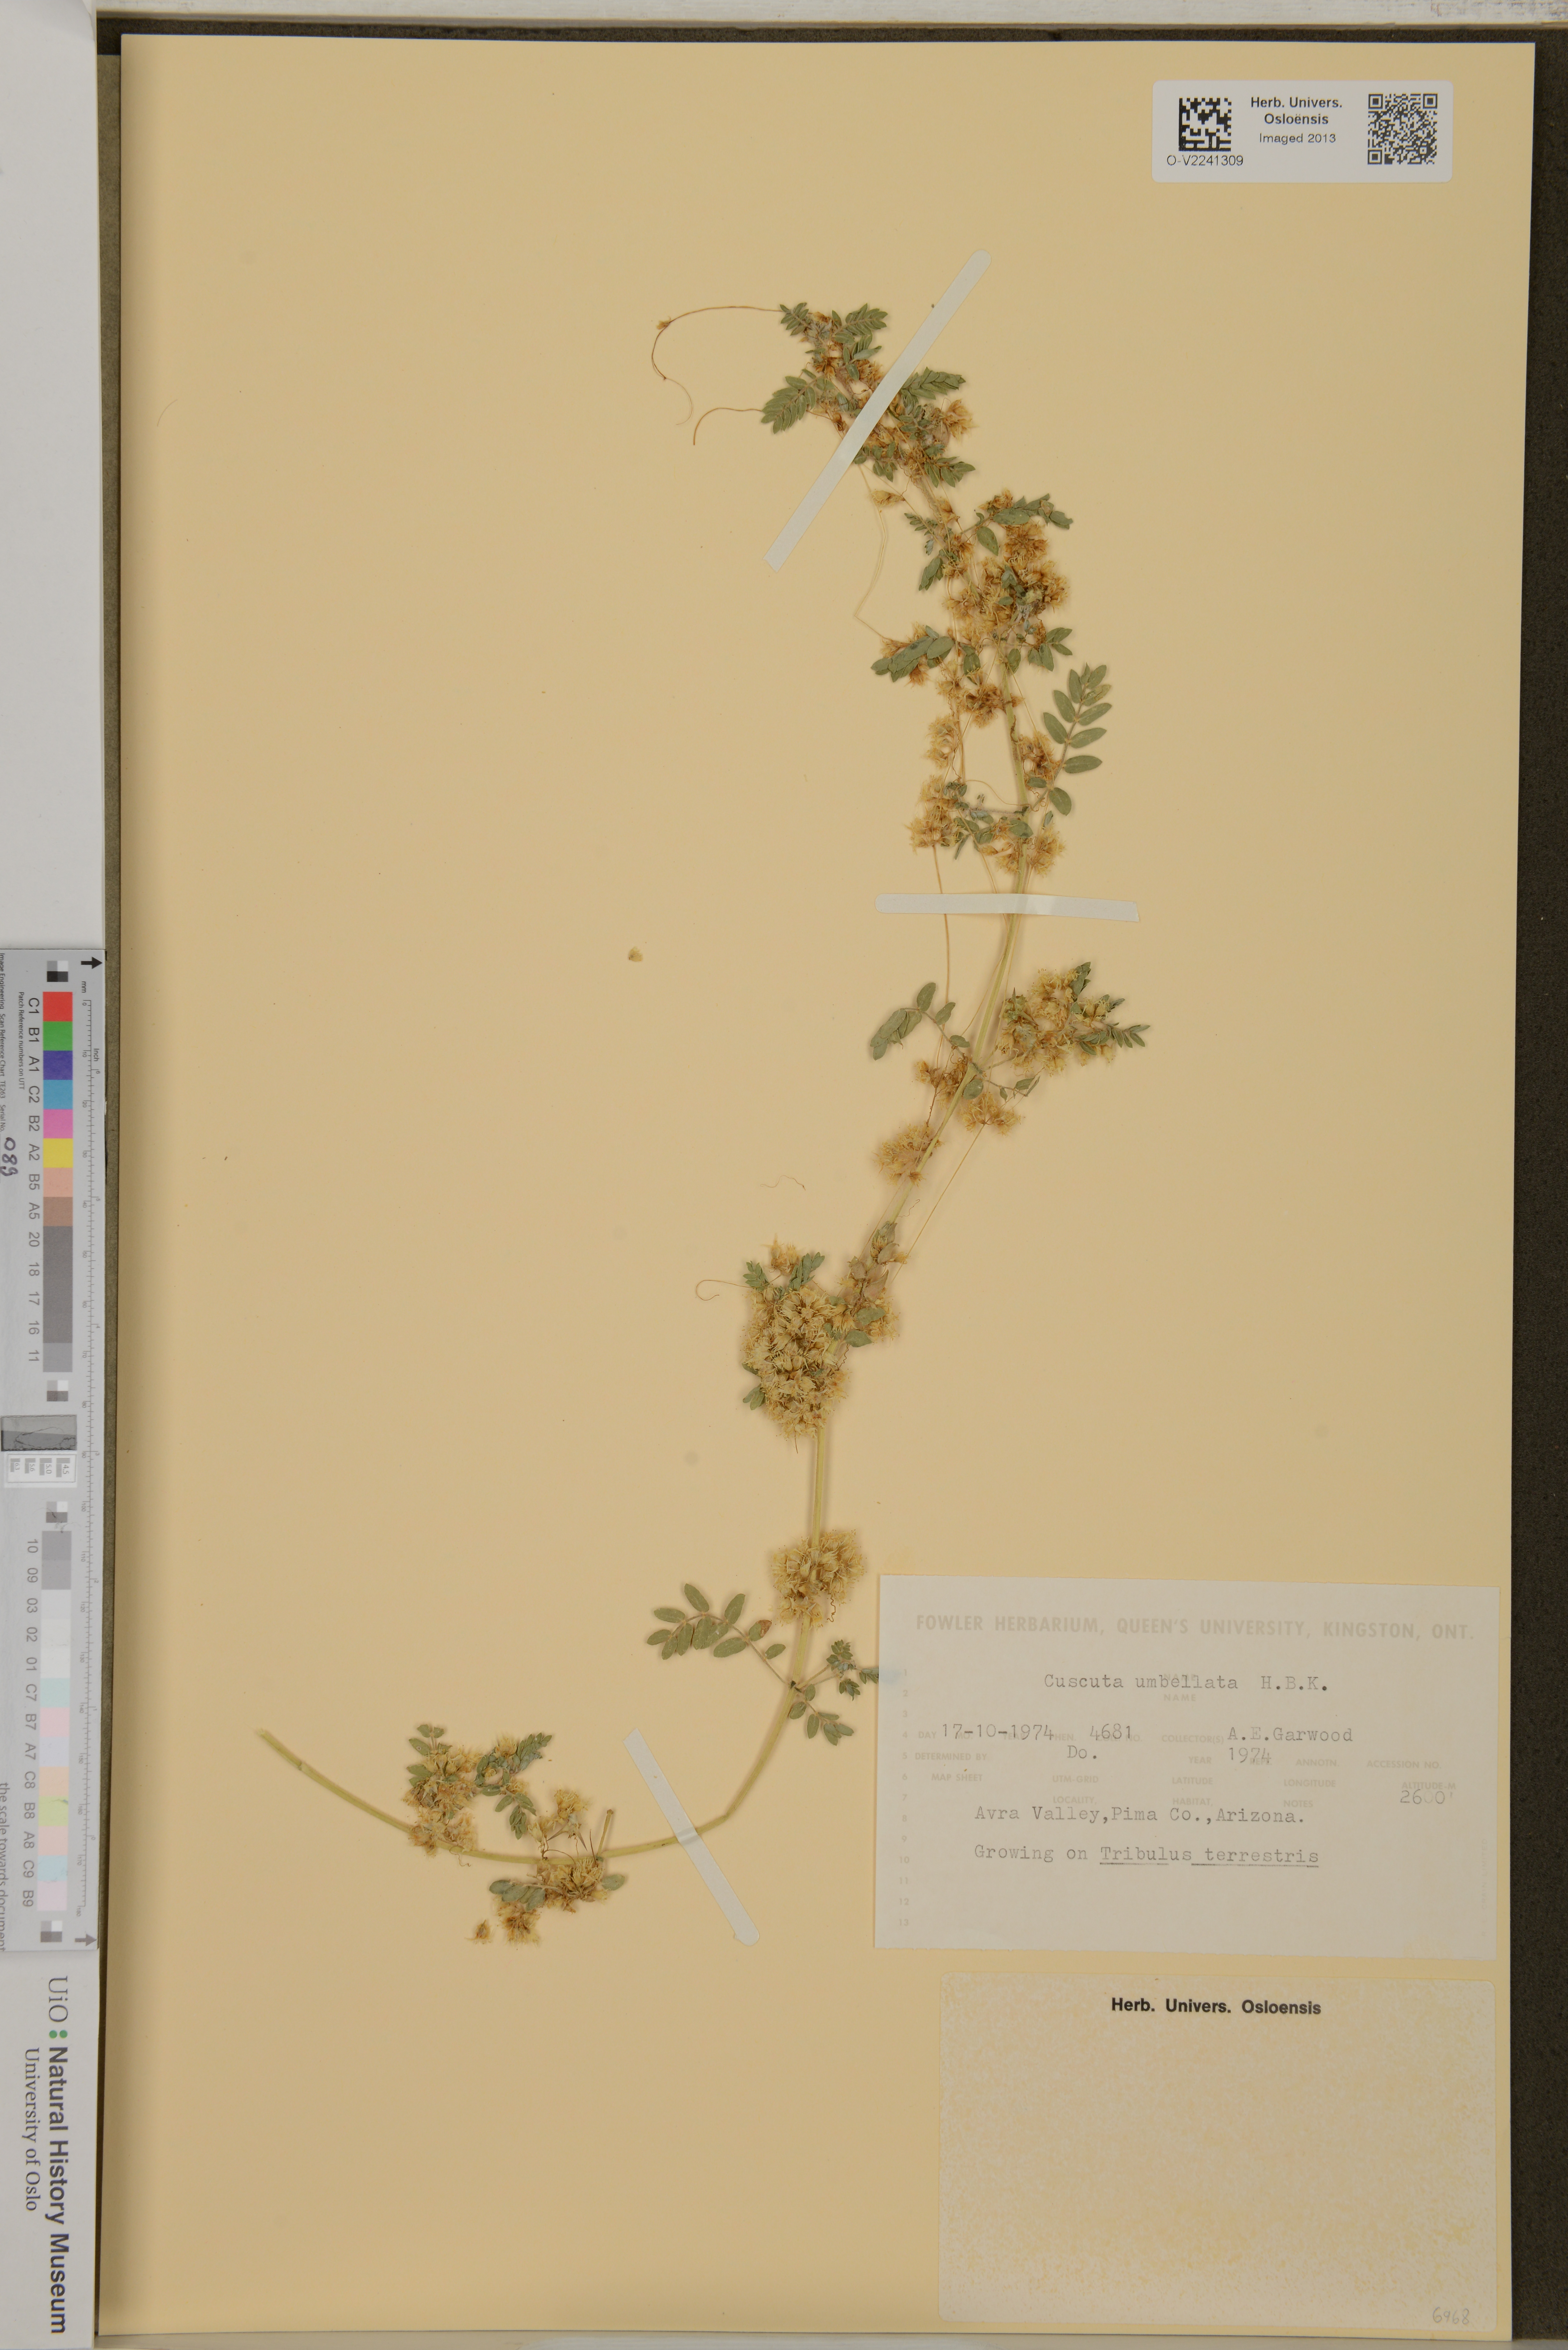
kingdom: Plantae
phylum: Tracheophyta
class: Magnoliopsida
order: Solanales
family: Convolvulaceae
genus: Cuscuta
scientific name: Cuscuta umbellata
